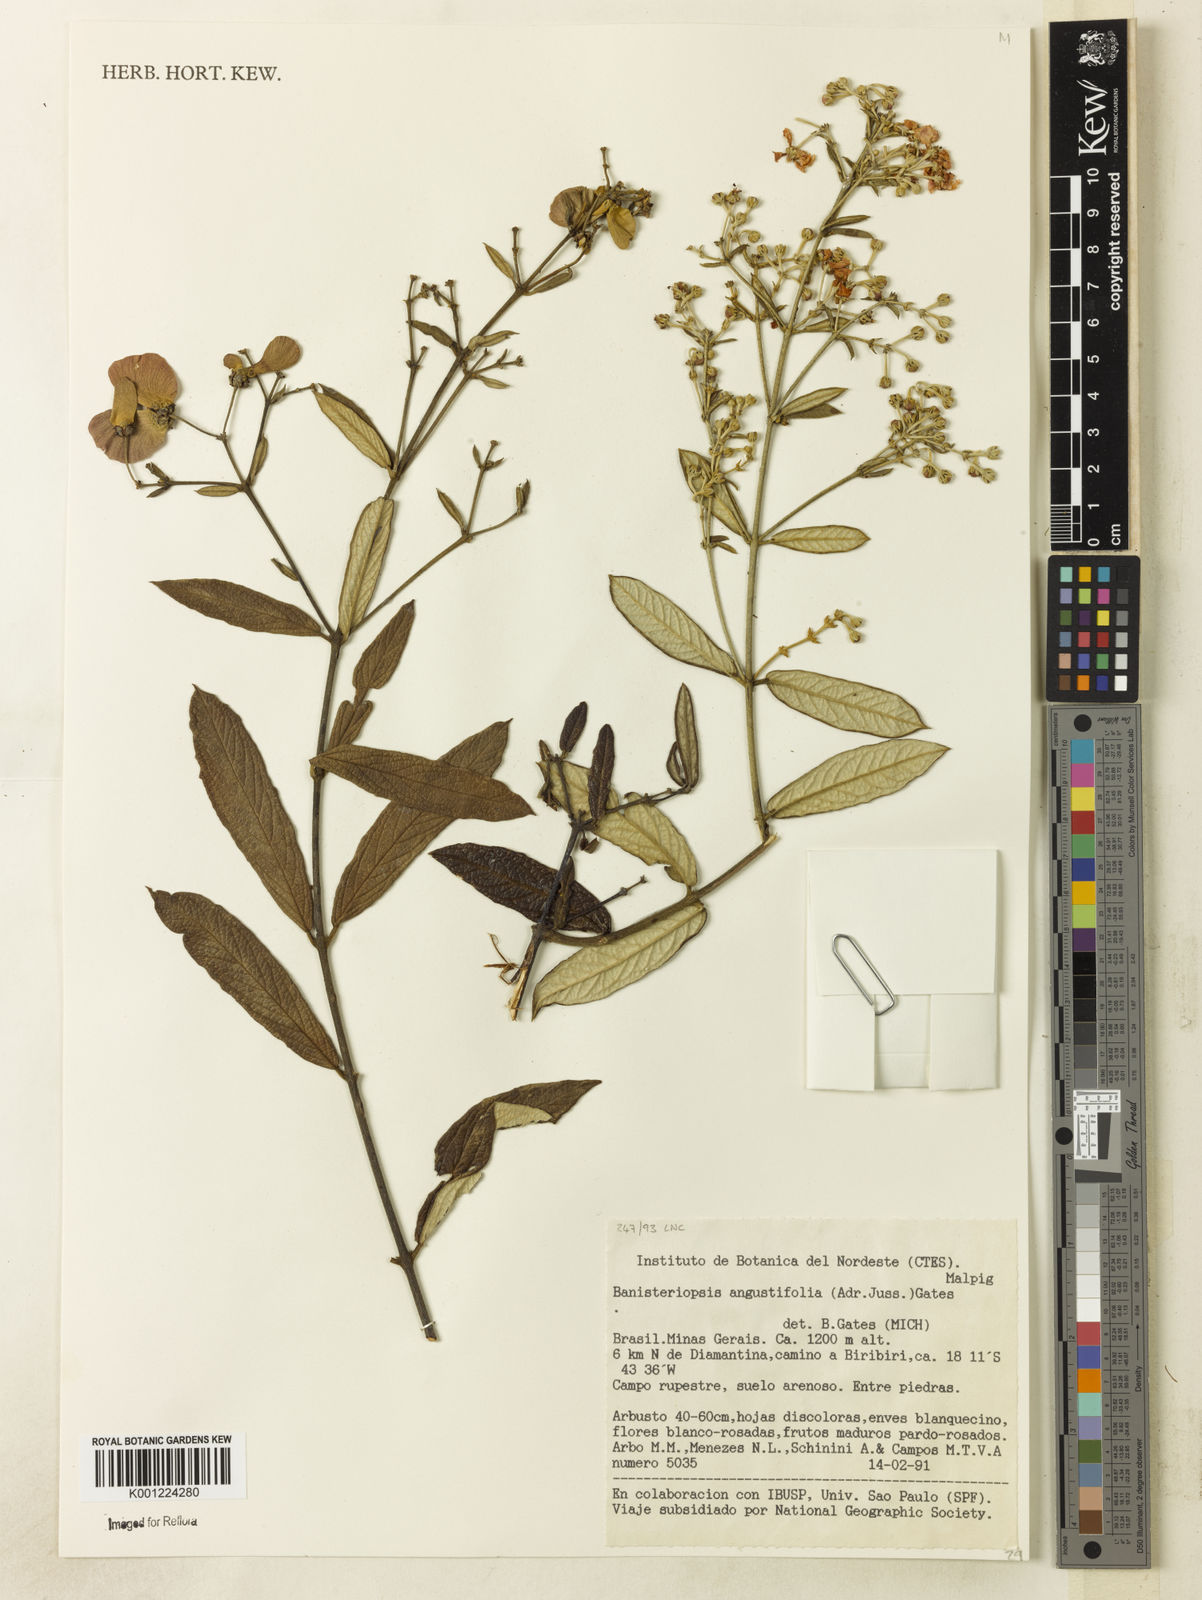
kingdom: Plantae
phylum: Tracheophyta
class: Magnoliopsida
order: Malpighiales
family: Malpighiaceae
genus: Banisteriopsis
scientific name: Banisteriopsis angustifolia
